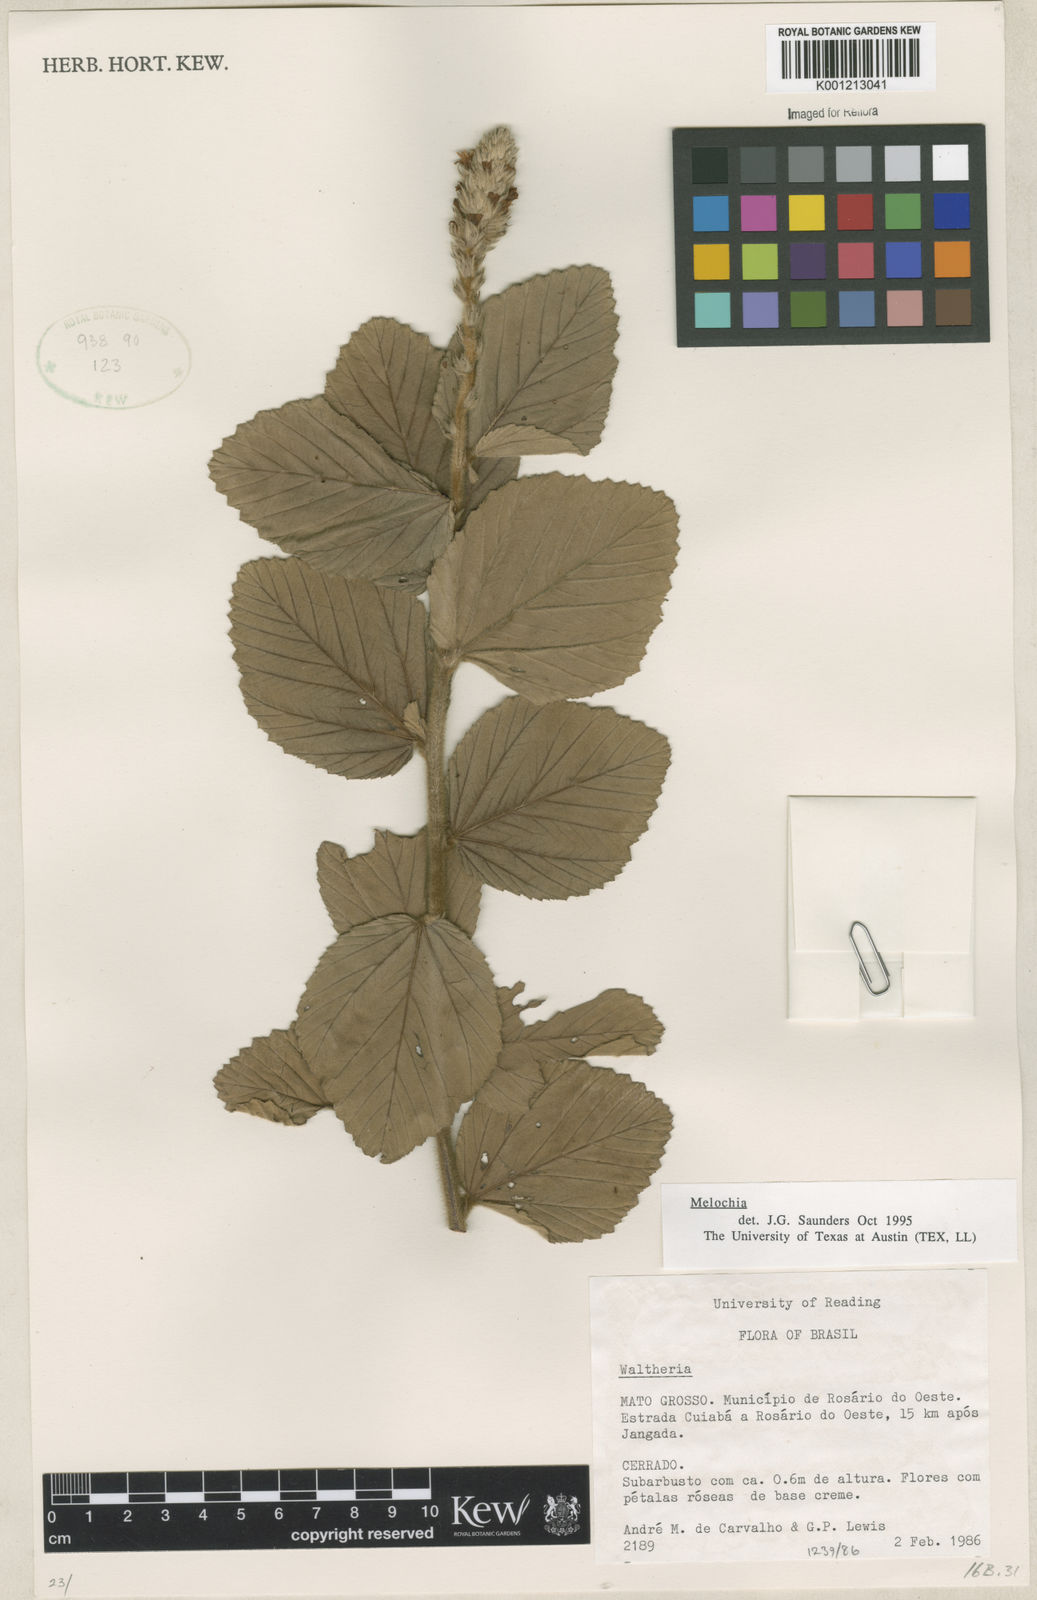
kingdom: Plantae
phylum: Tracheophyta
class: Magnoliopsida
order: Malvales
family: Malvaceae
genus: Melochia
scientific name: Melochia
